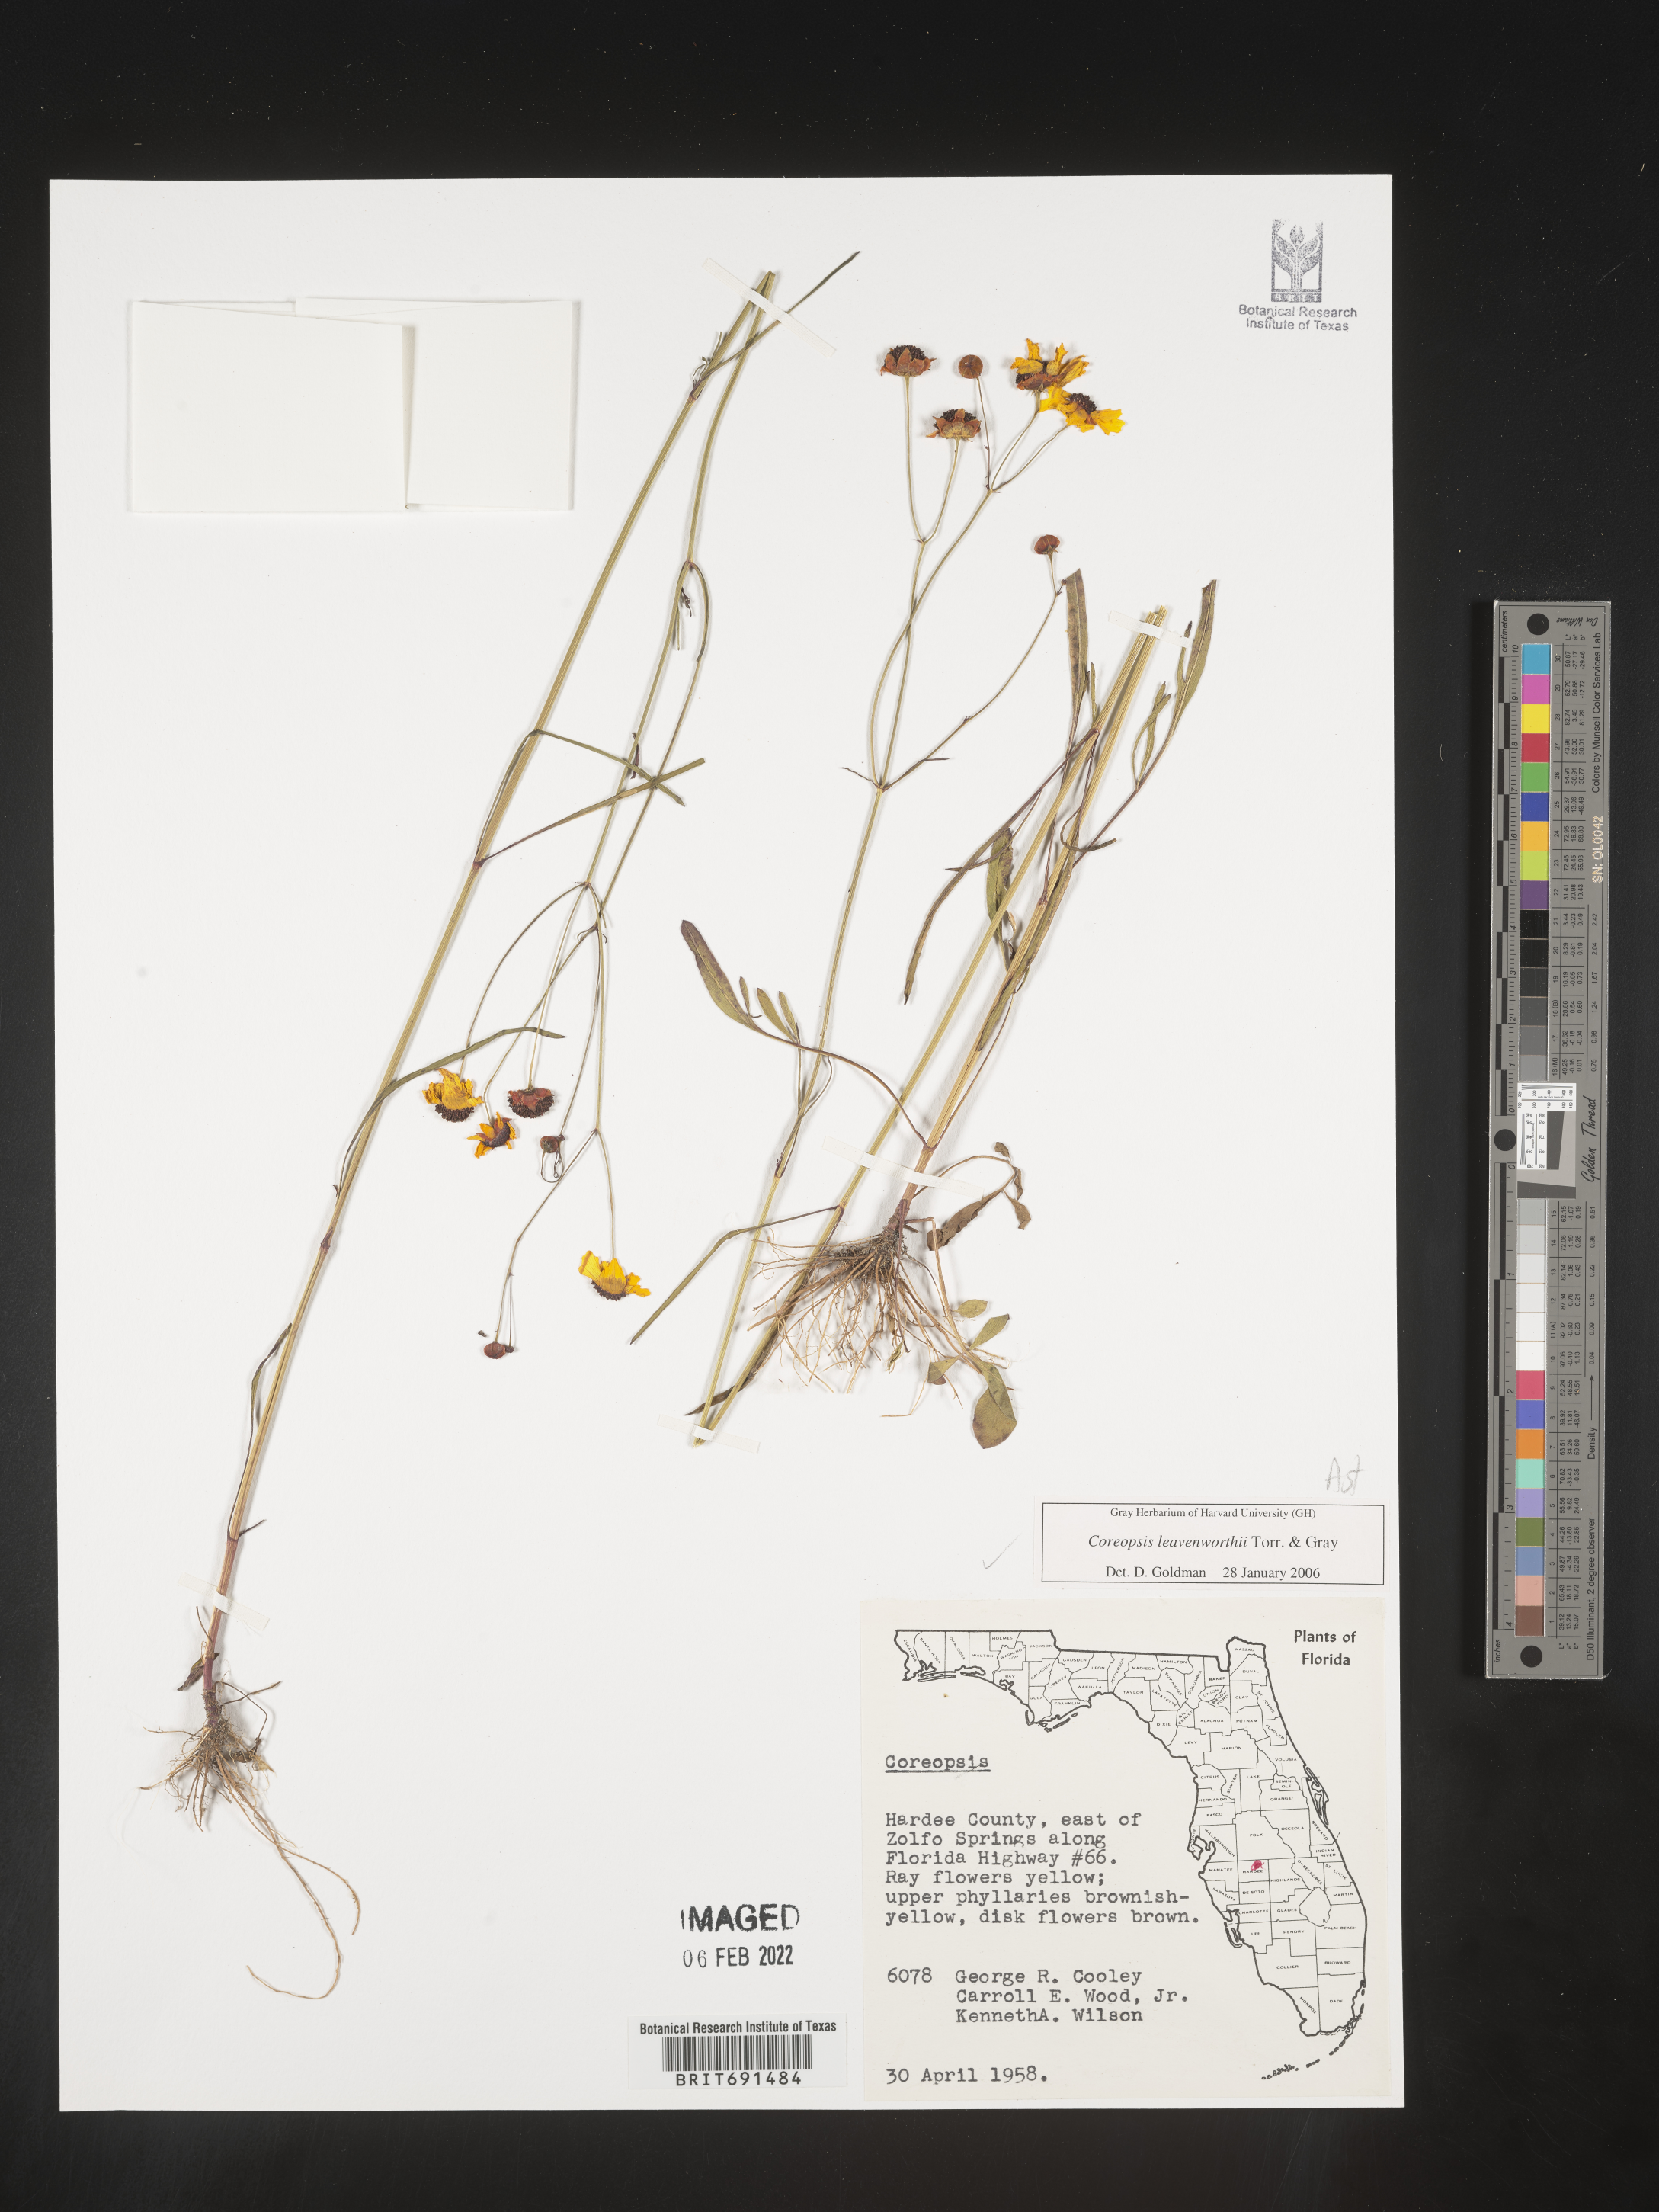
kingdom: Plantae
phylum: Tracheophyta
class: Magnoliopsida
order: Asterales
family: Asteraceae
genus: Coreopsis
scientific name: Coreopsis leavenworthii
